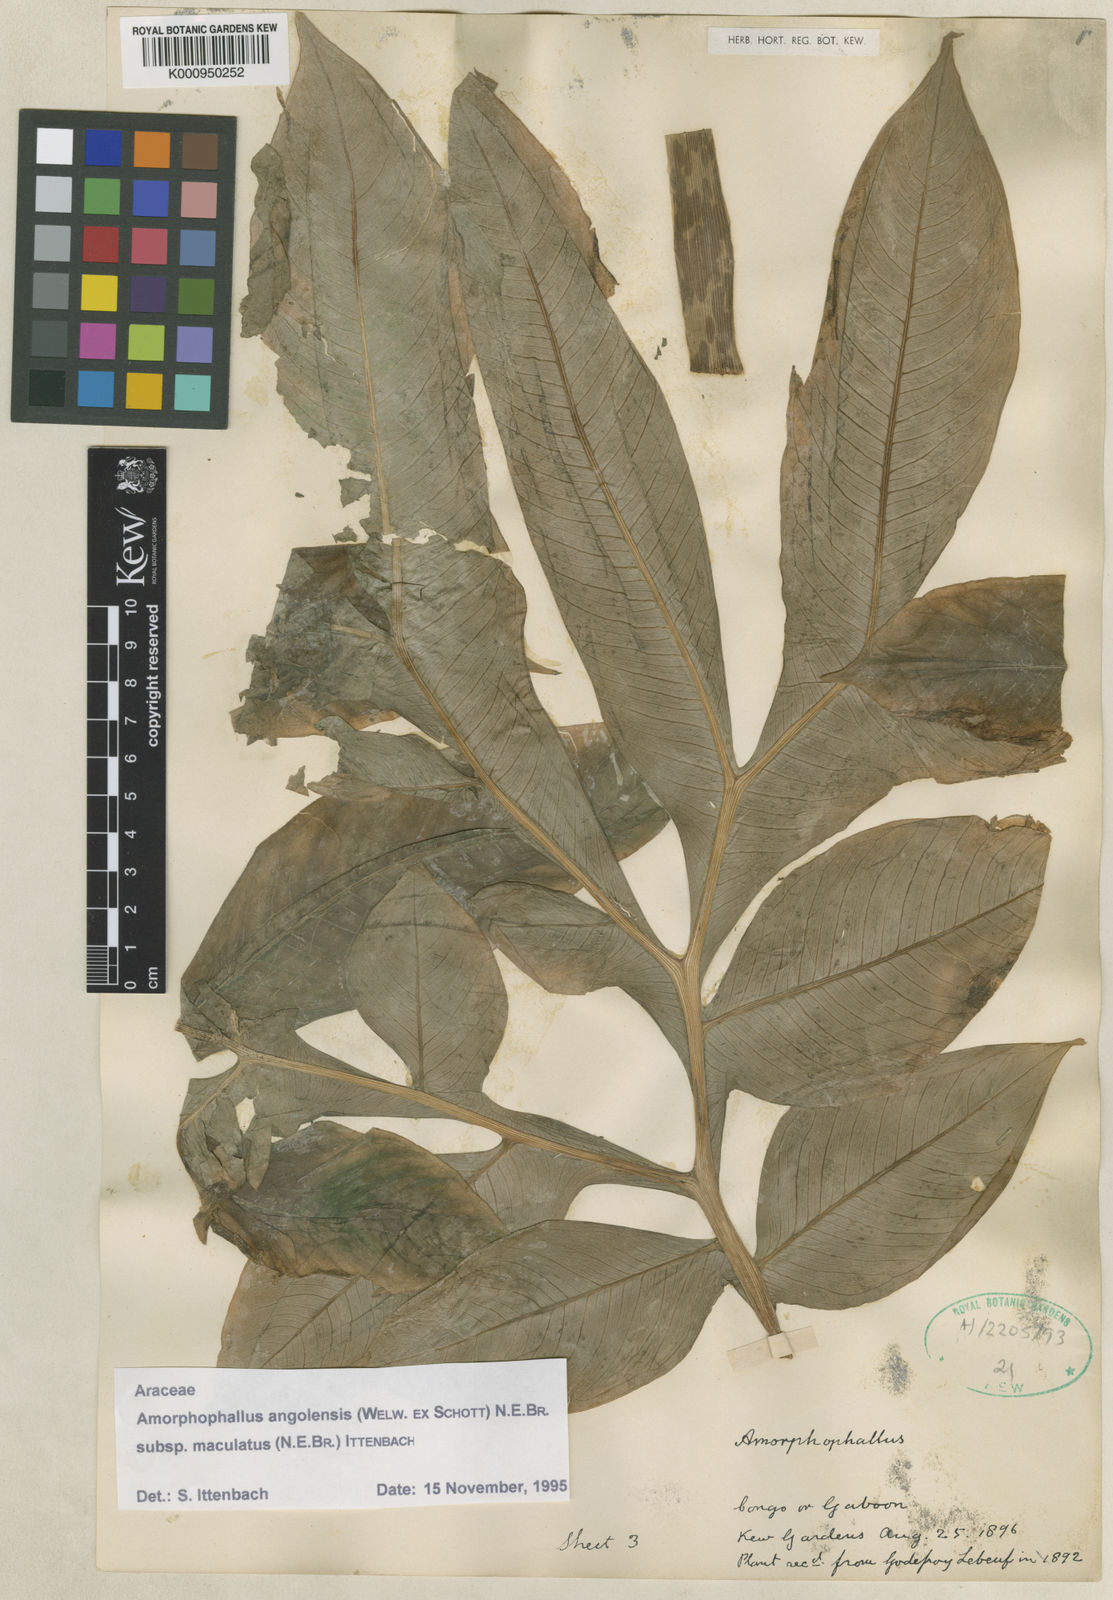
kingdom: Plantae
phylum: Tracheophyta
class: Liliopsida
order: Alismatales
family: Araceae
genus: Amorphophallus
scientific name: Amorphophallus angolensis
